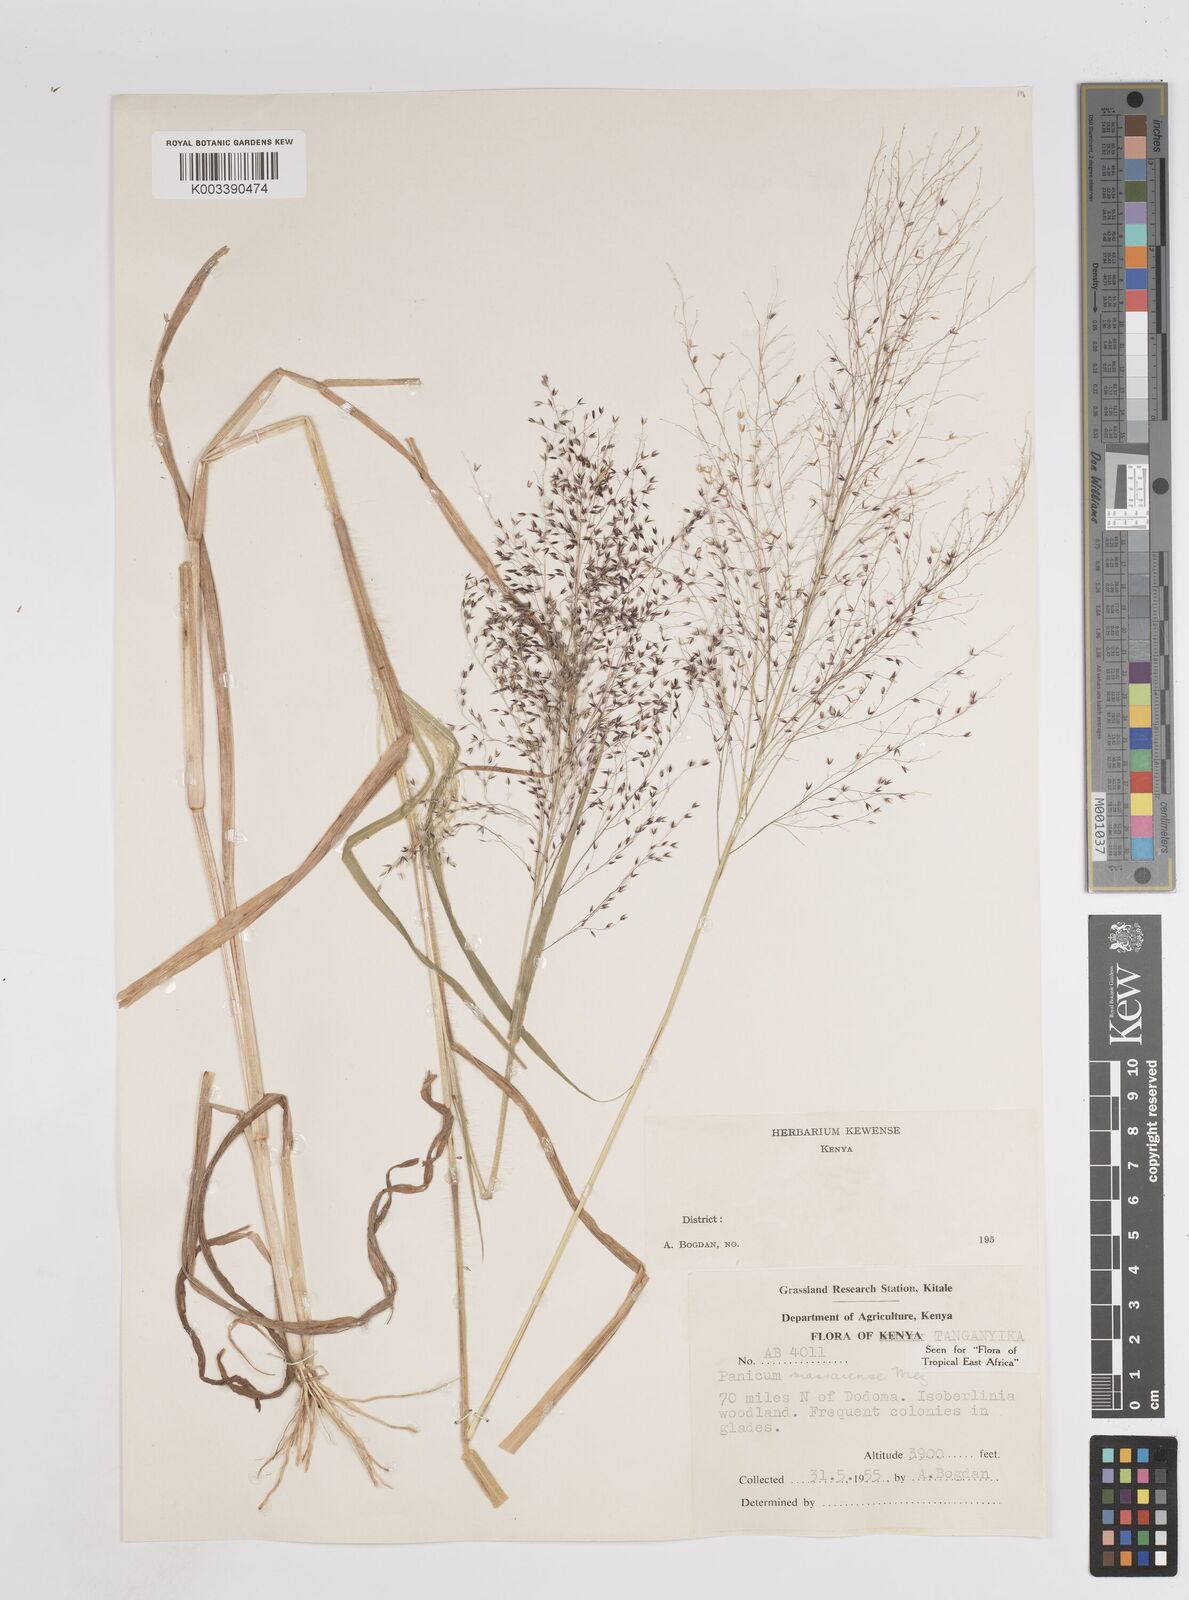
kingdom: Plantae
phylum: Tracheophyta
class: Liliopsida
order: Poales
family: Poaceae
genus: Panicum
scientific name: Panicum massaiense
